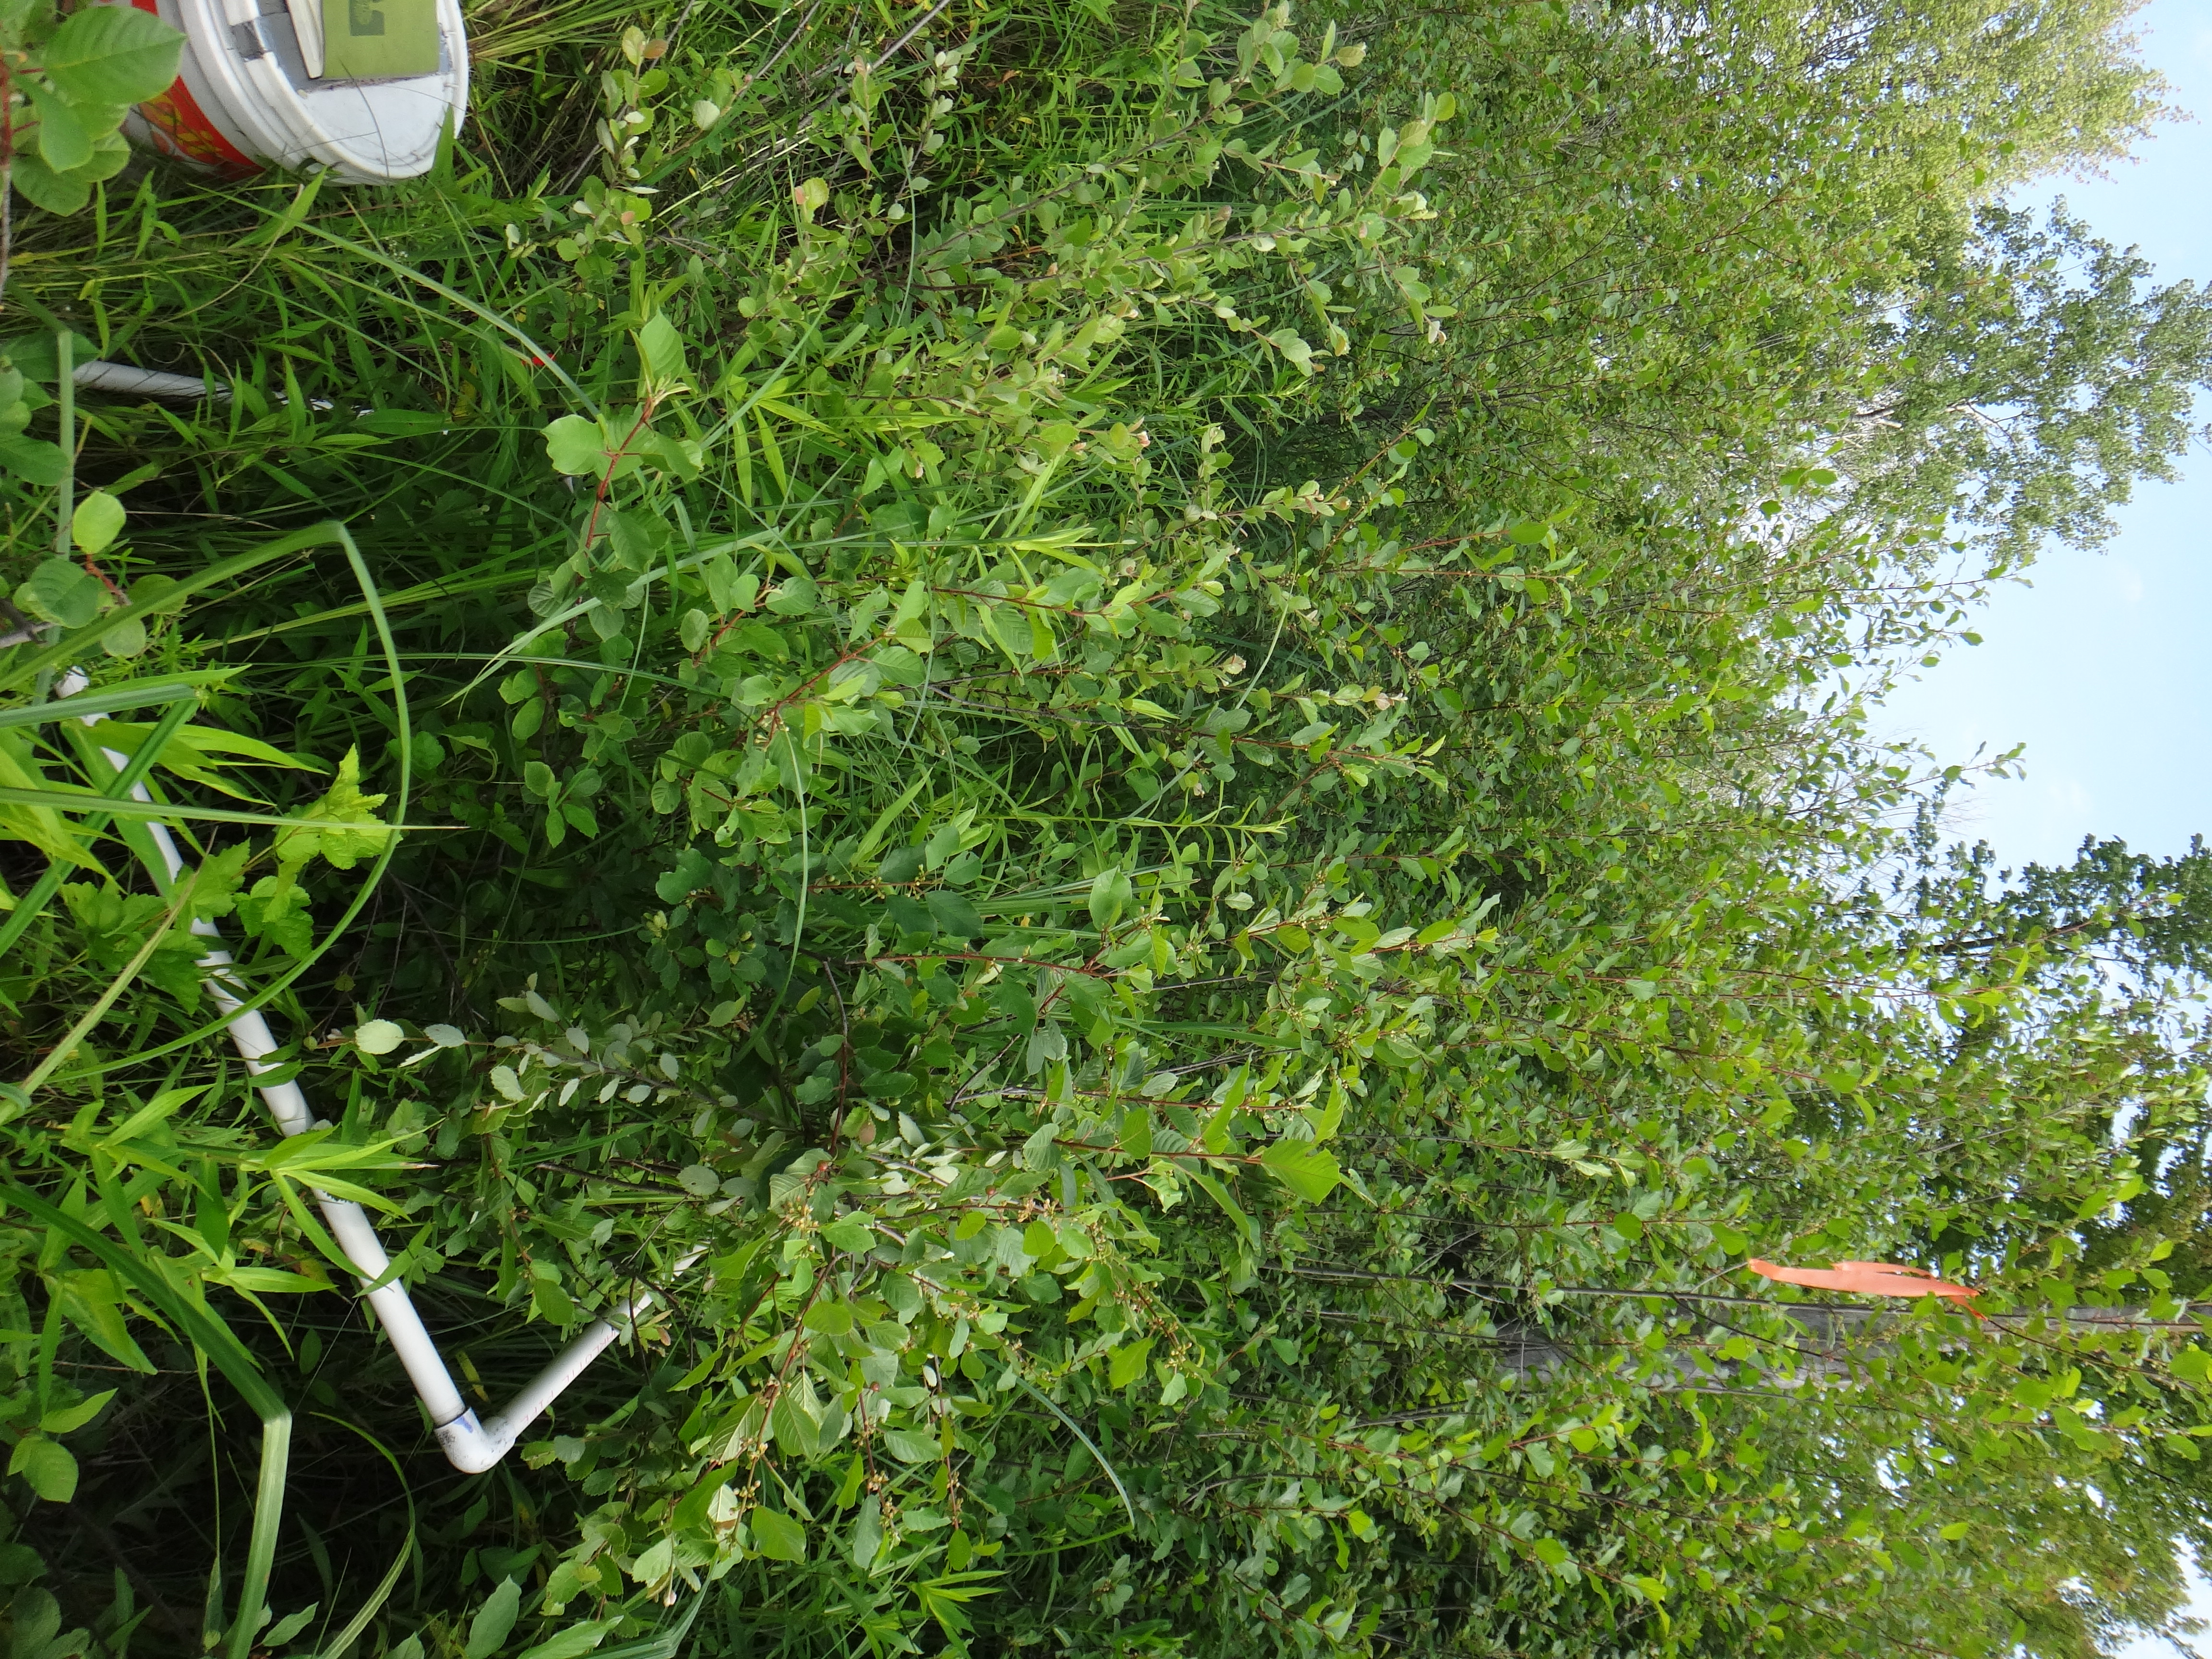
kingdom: Plantae
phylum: Tracheophyta
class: Magnoliopsida
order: Rosales
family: Rhamnaceae
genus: Frangula
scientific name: Frangula alnus
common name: Alder buckthorn
